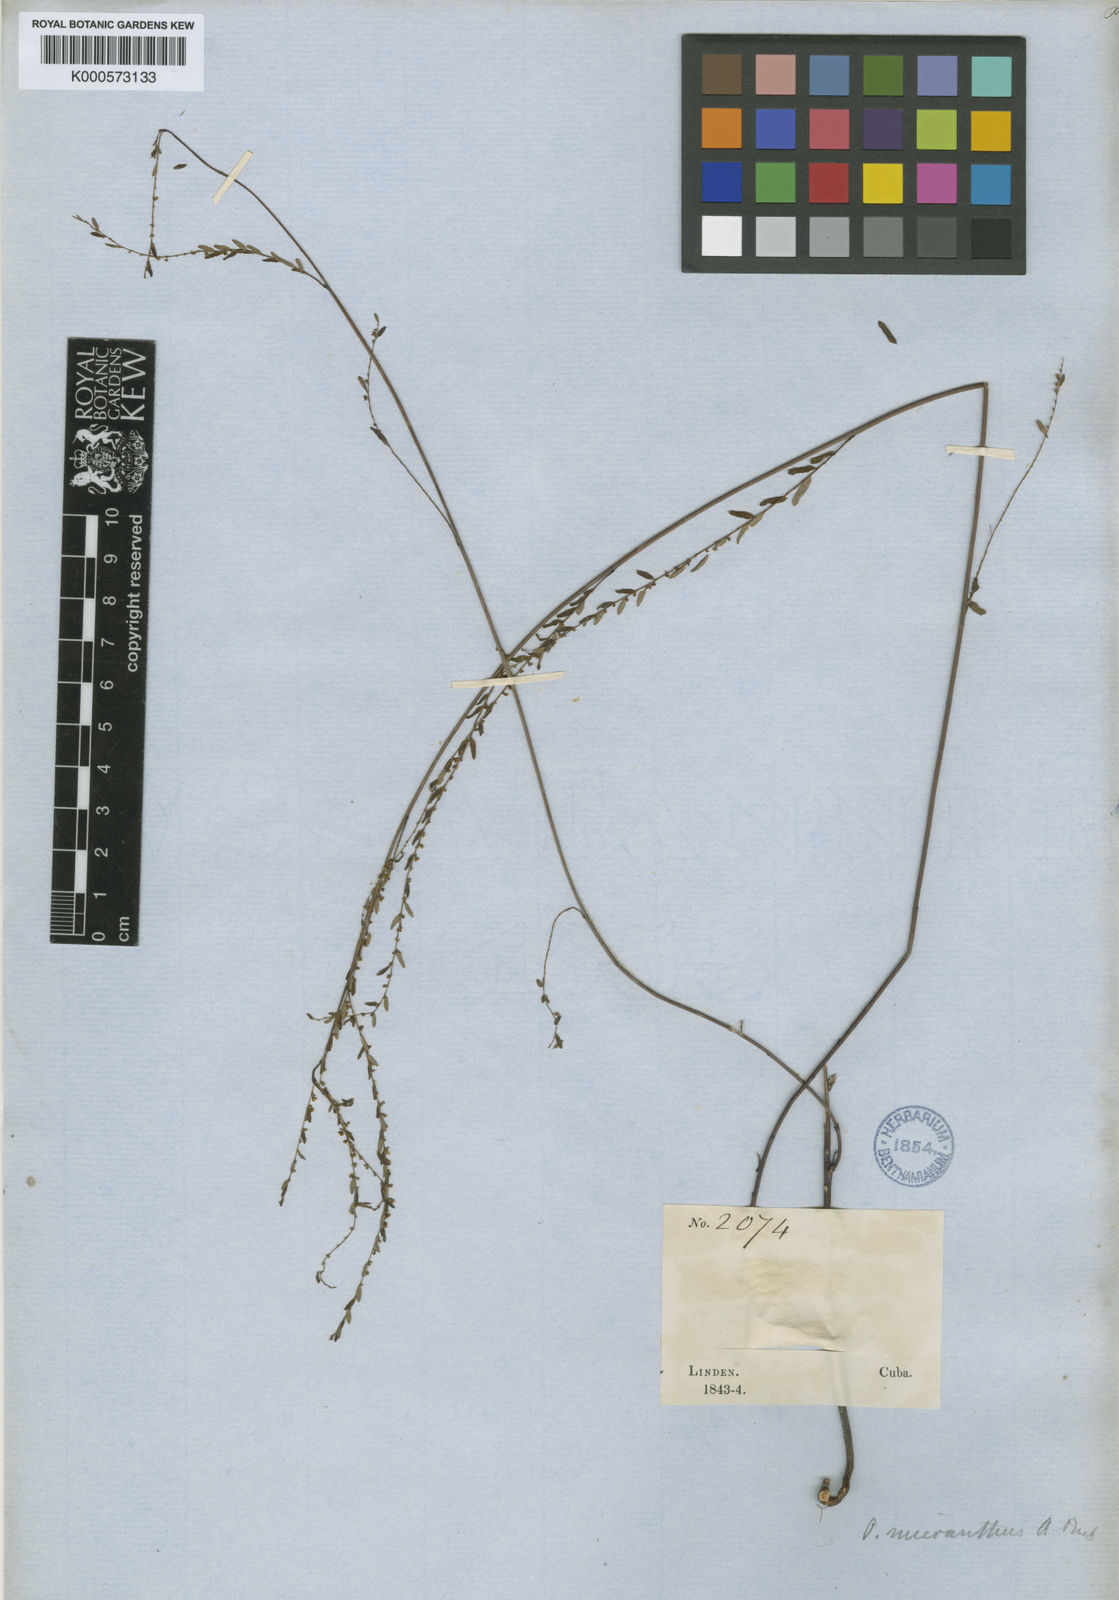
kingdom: Plantae
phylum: Tracheophyta
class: Magnoliopsida
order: Malpighiales
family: Phyllanthaceae
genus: Phyllanthus
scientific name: Phyllanthus micranthus
